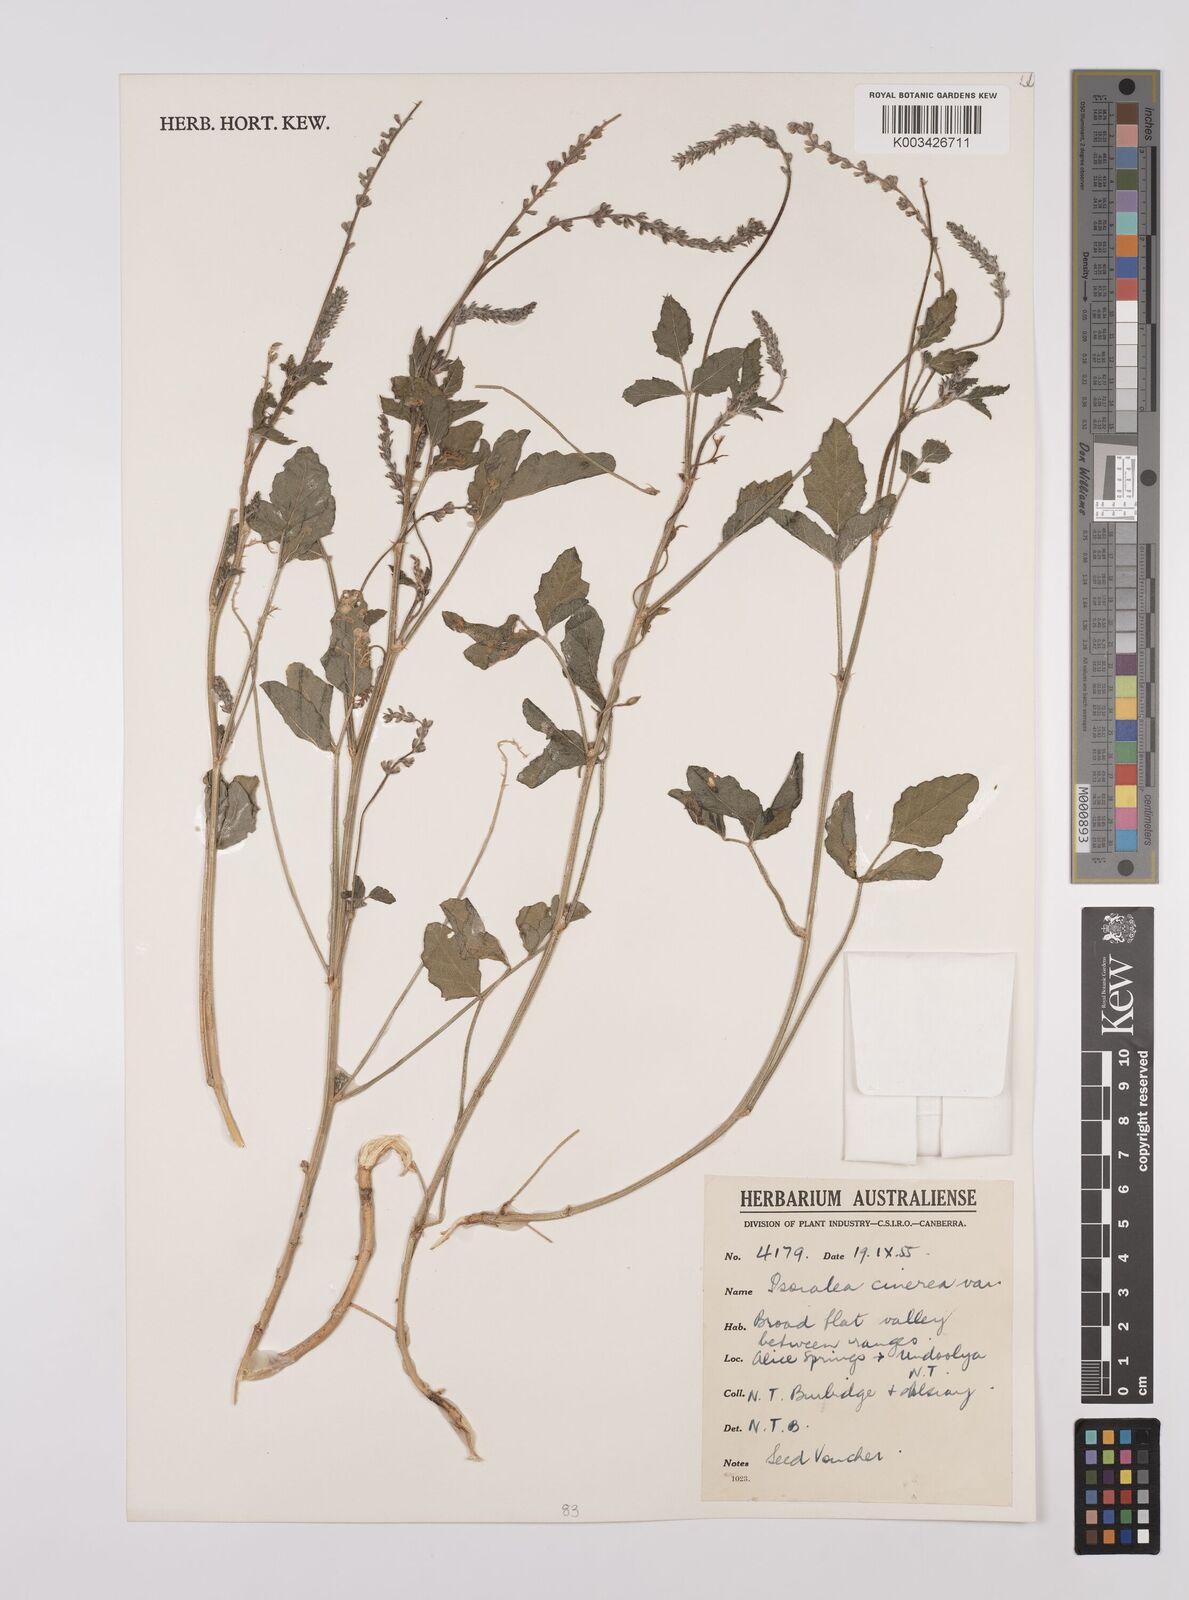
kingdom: Plantae
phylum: Tracheophyta
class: Magnoliopsida
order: Fabales
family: Fabaceae
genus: Cullen
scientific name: Cullen cinereum
